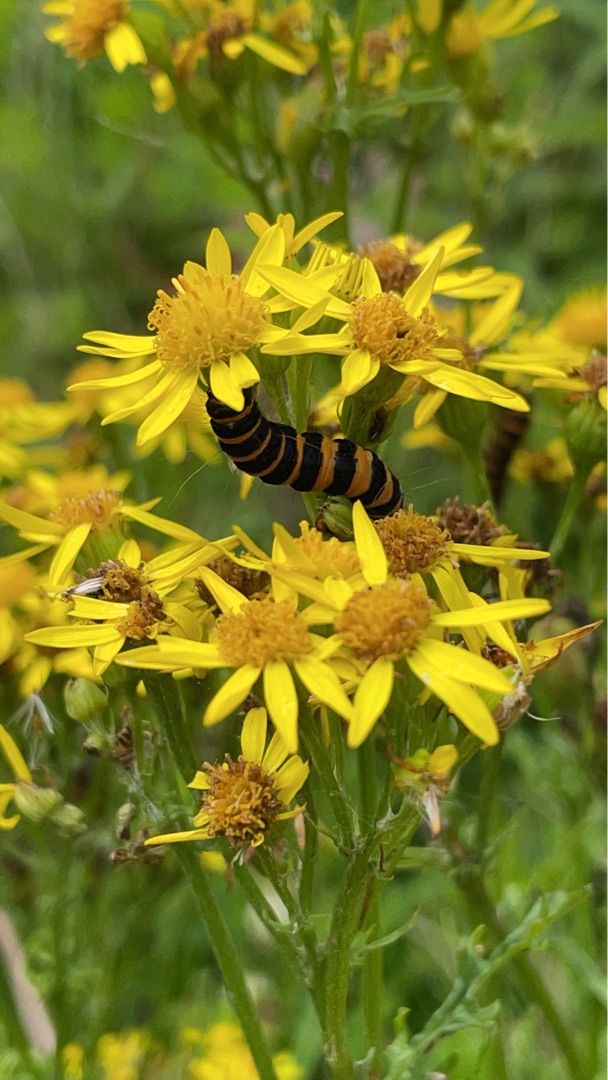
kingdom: Animalia
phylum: Arthropoda
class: Insecta
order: Lepidoptera
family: Erebidae
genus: Tyria
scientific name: Tyria jacobaeae
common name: Blodplet
